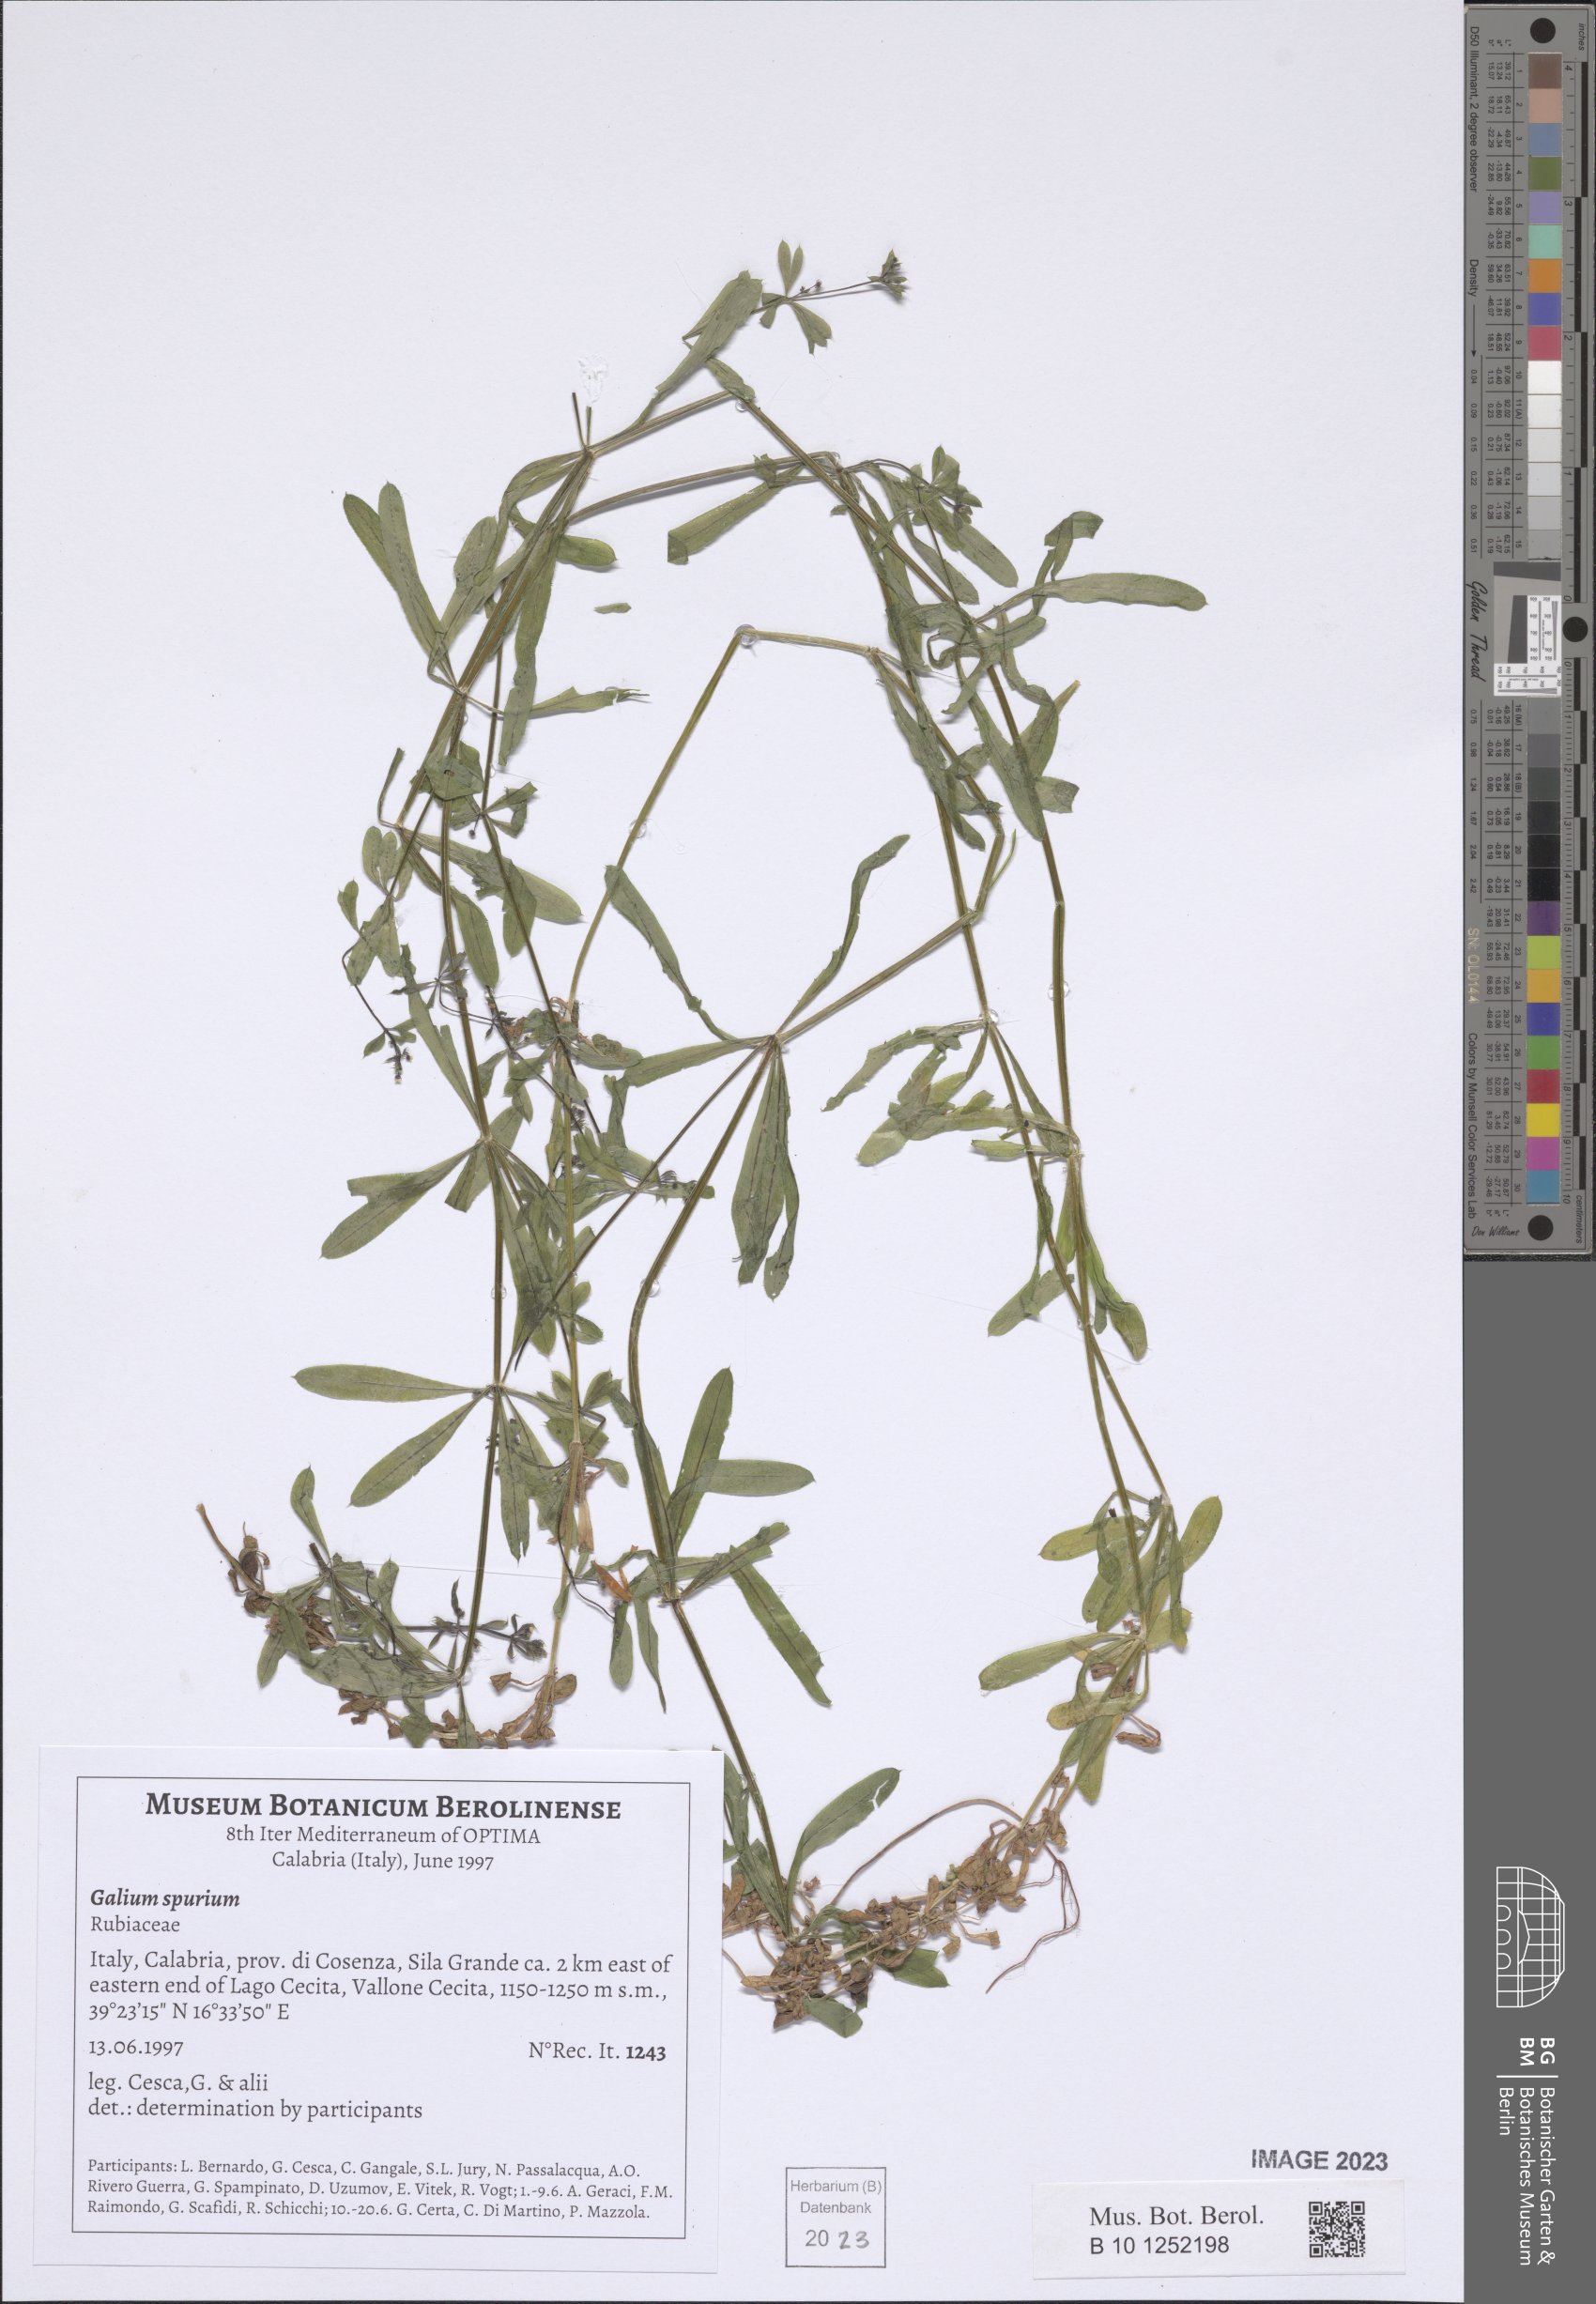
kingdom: Plantae
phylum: Tracheophyta
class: Magnoliopsida
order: Gentianales
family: Rubiaceae
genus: Galium
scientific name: Galium spurium
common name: False cleavers
